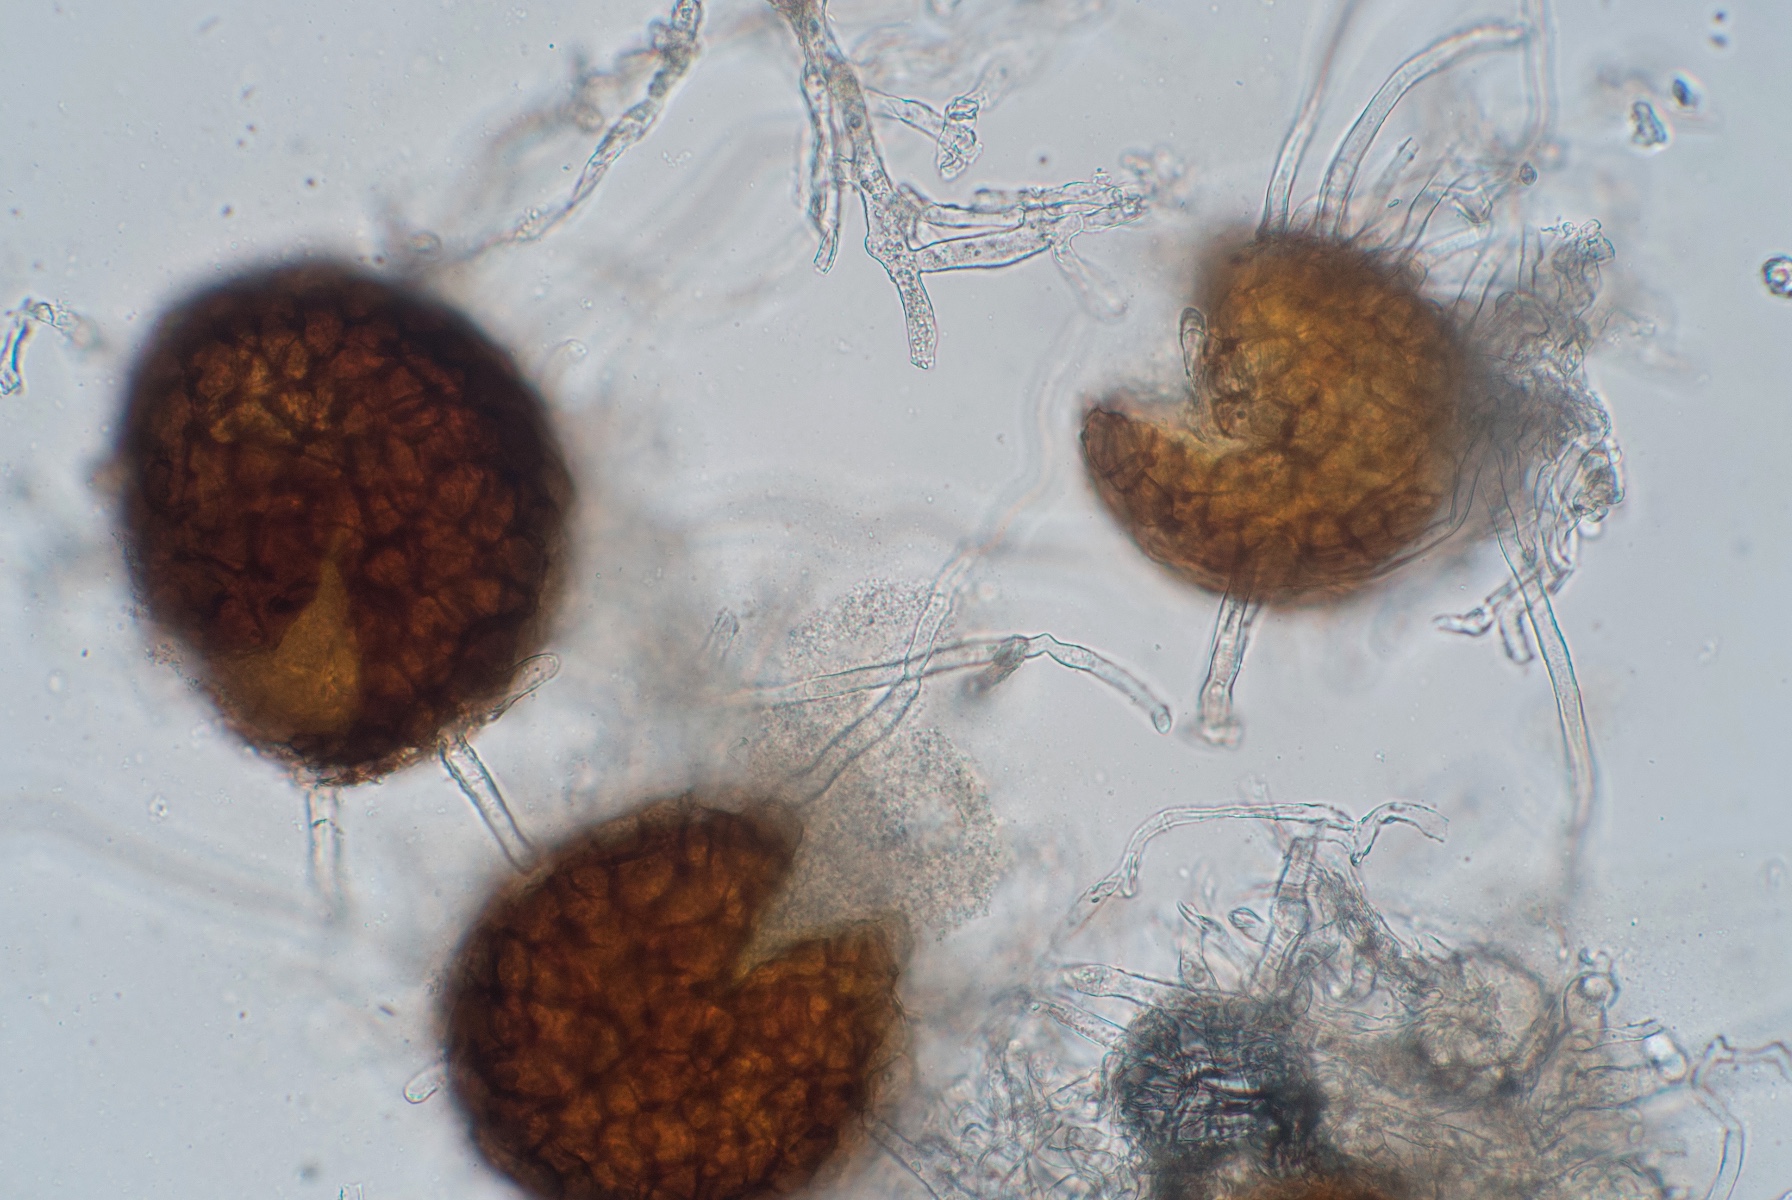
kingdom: Fungi
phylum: Ascomycota
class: Leotiomycetes
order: Helotiales
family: Erysiphaceae
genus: Erysiphe
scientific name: Erysiphe pisi
